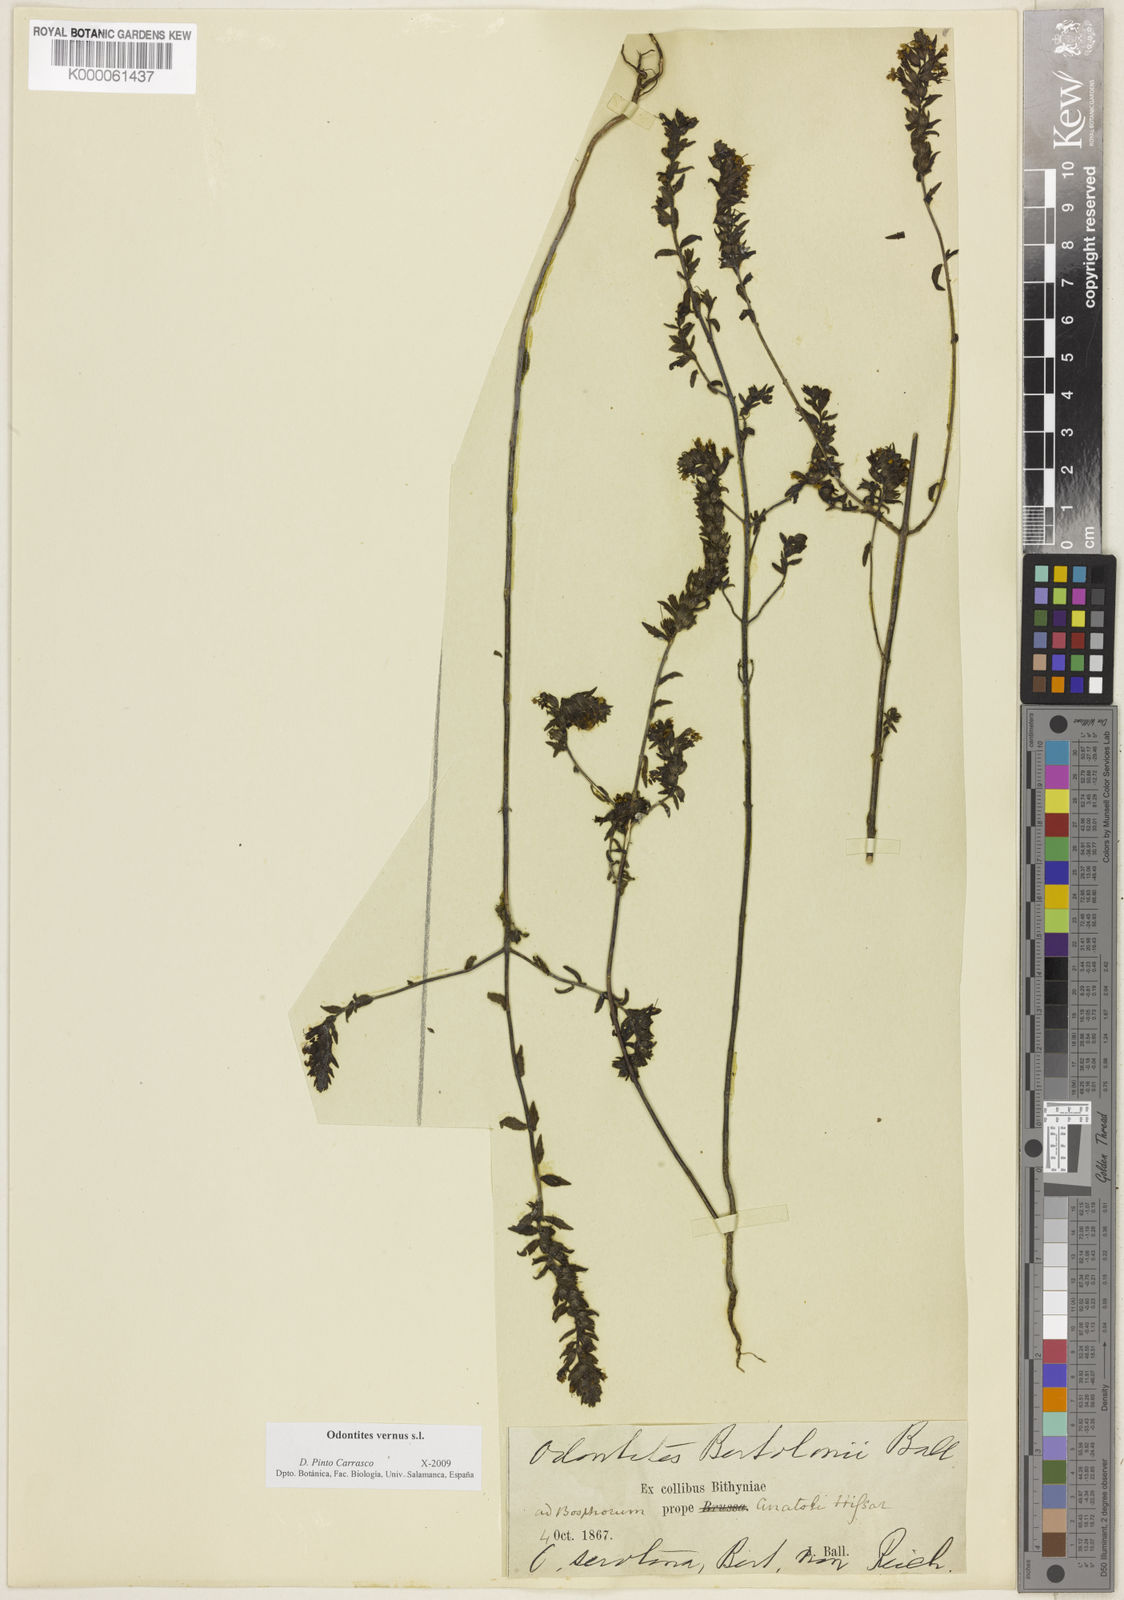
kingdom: Plantae
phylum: Tracheophyta
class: Magnoliopsida
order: Lamiales
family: Orobanchaceae
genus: Odontites
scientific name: Odontites
